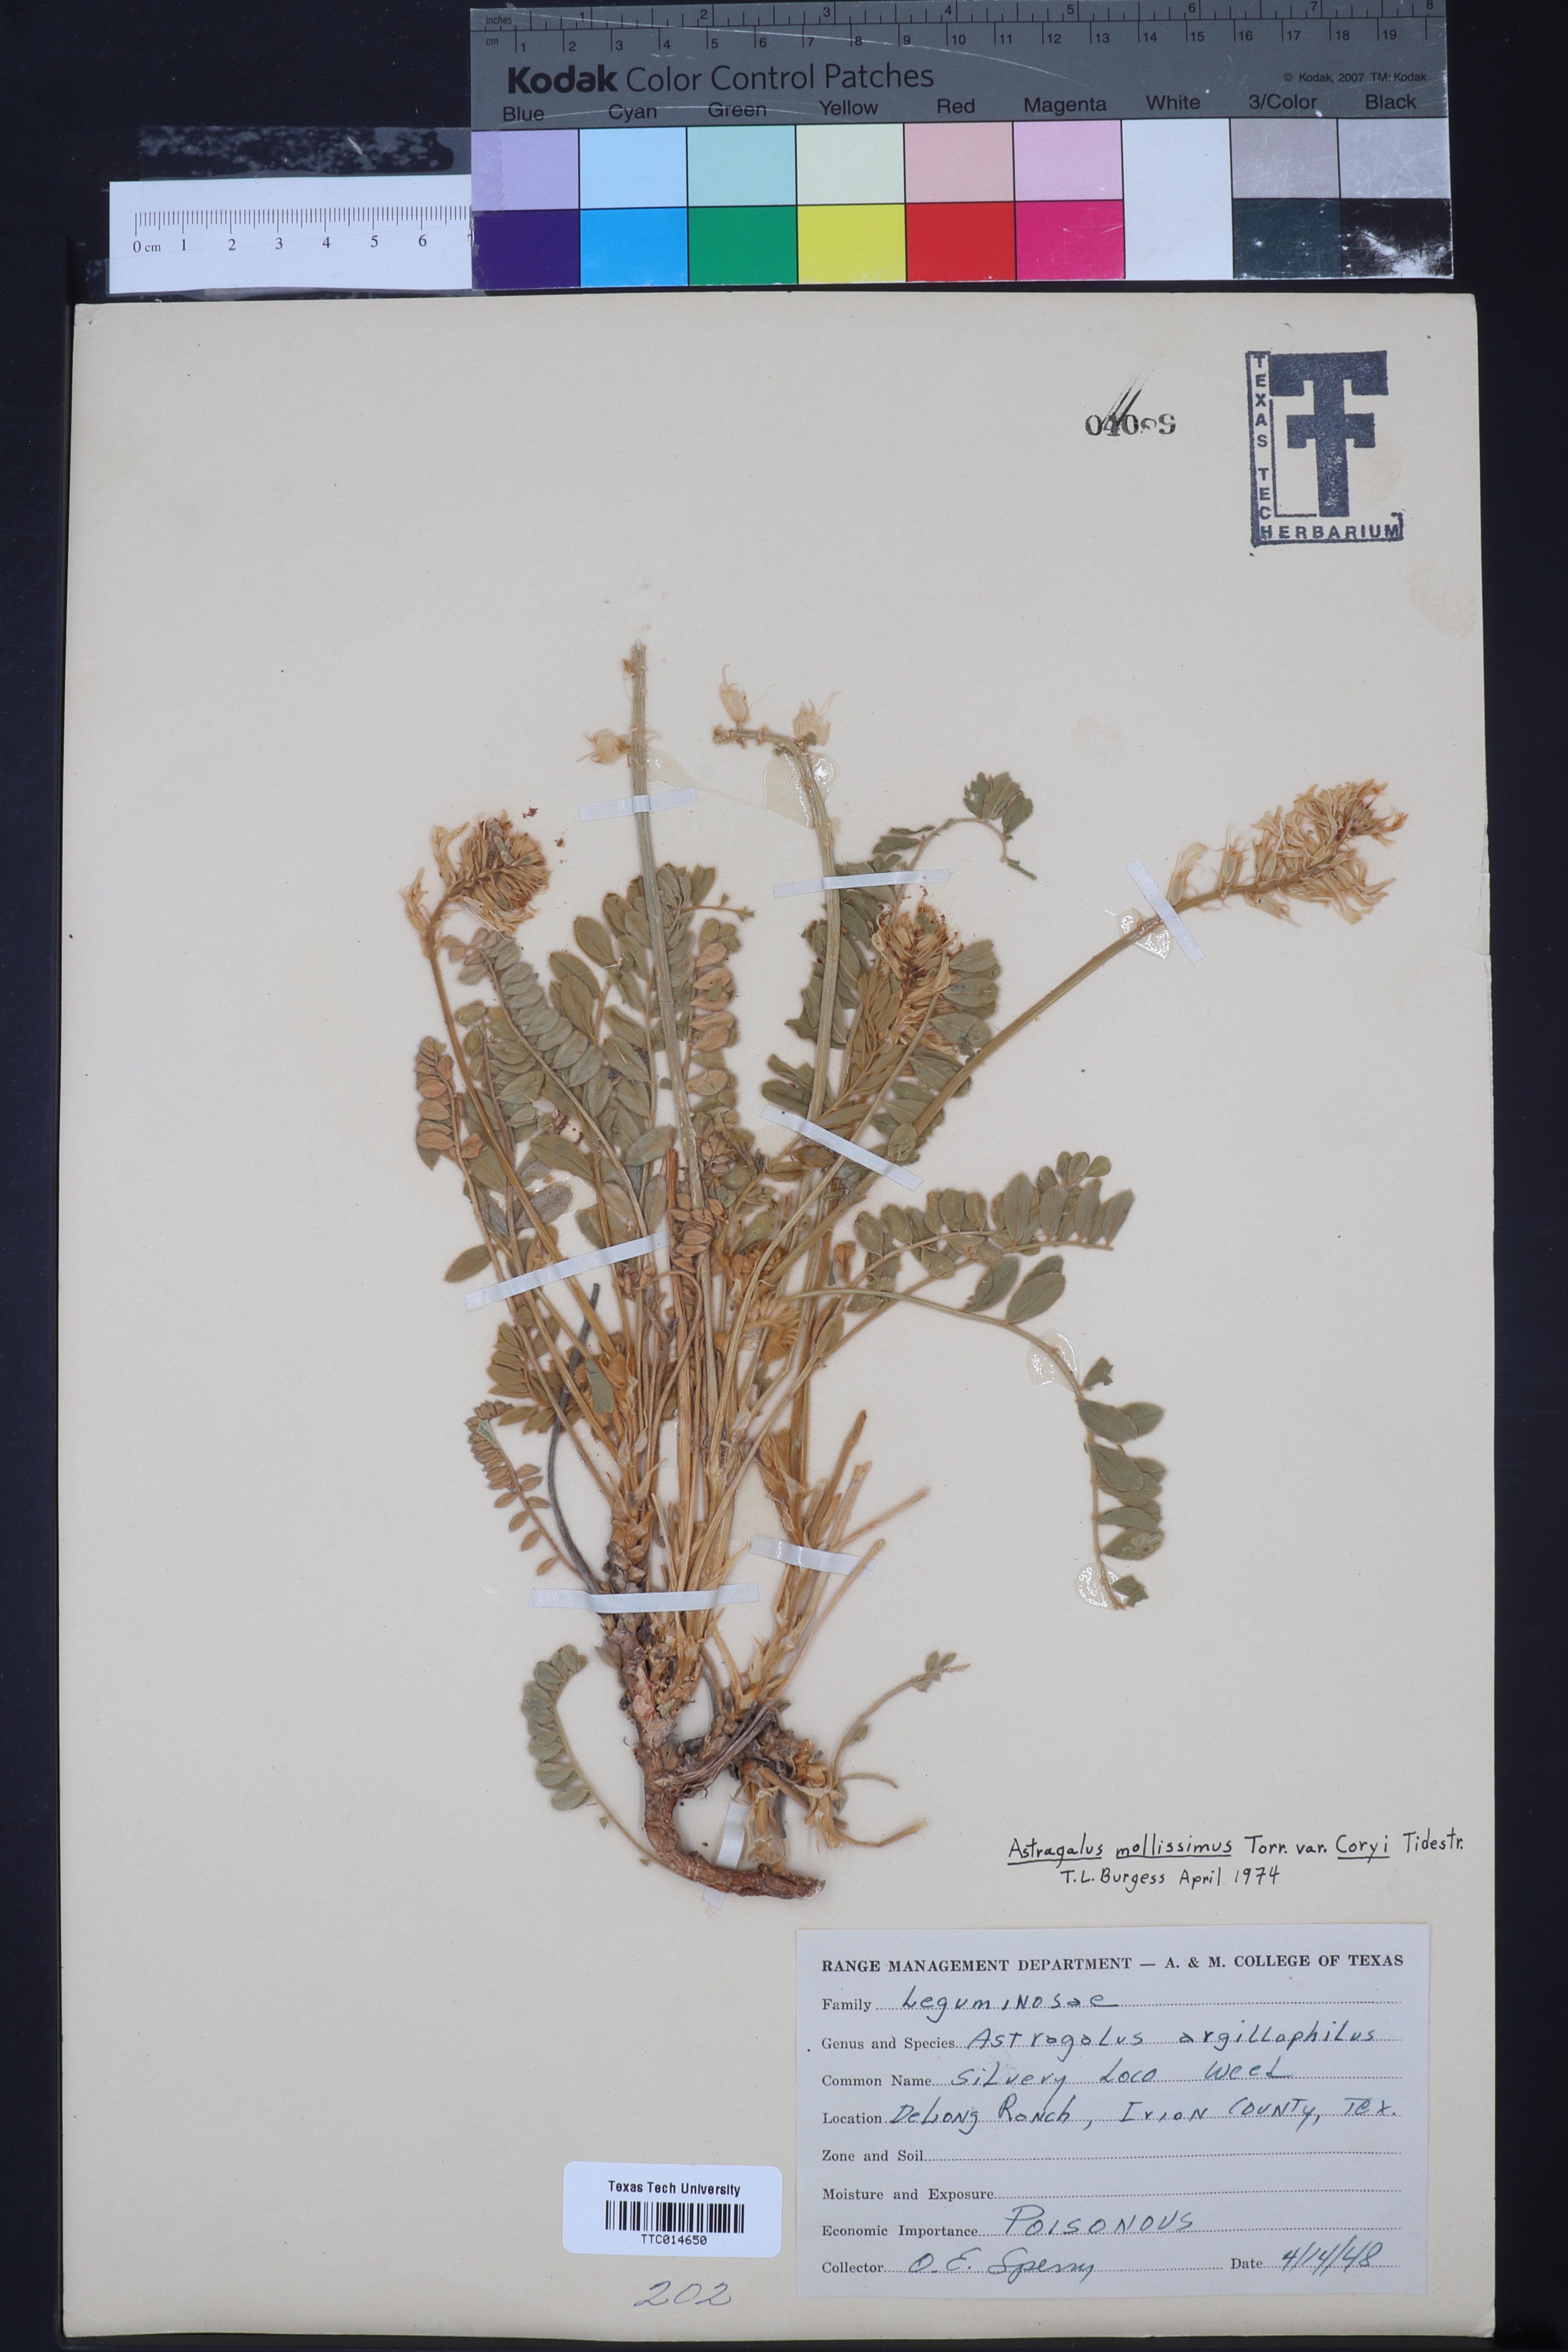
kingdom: Plantae
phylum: Tracheophyta
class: Magnoliopsida
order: Fabales
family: Fabaceae
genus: Astragalus
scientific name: Astragalus mollissimus
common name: Woolly locoweed
